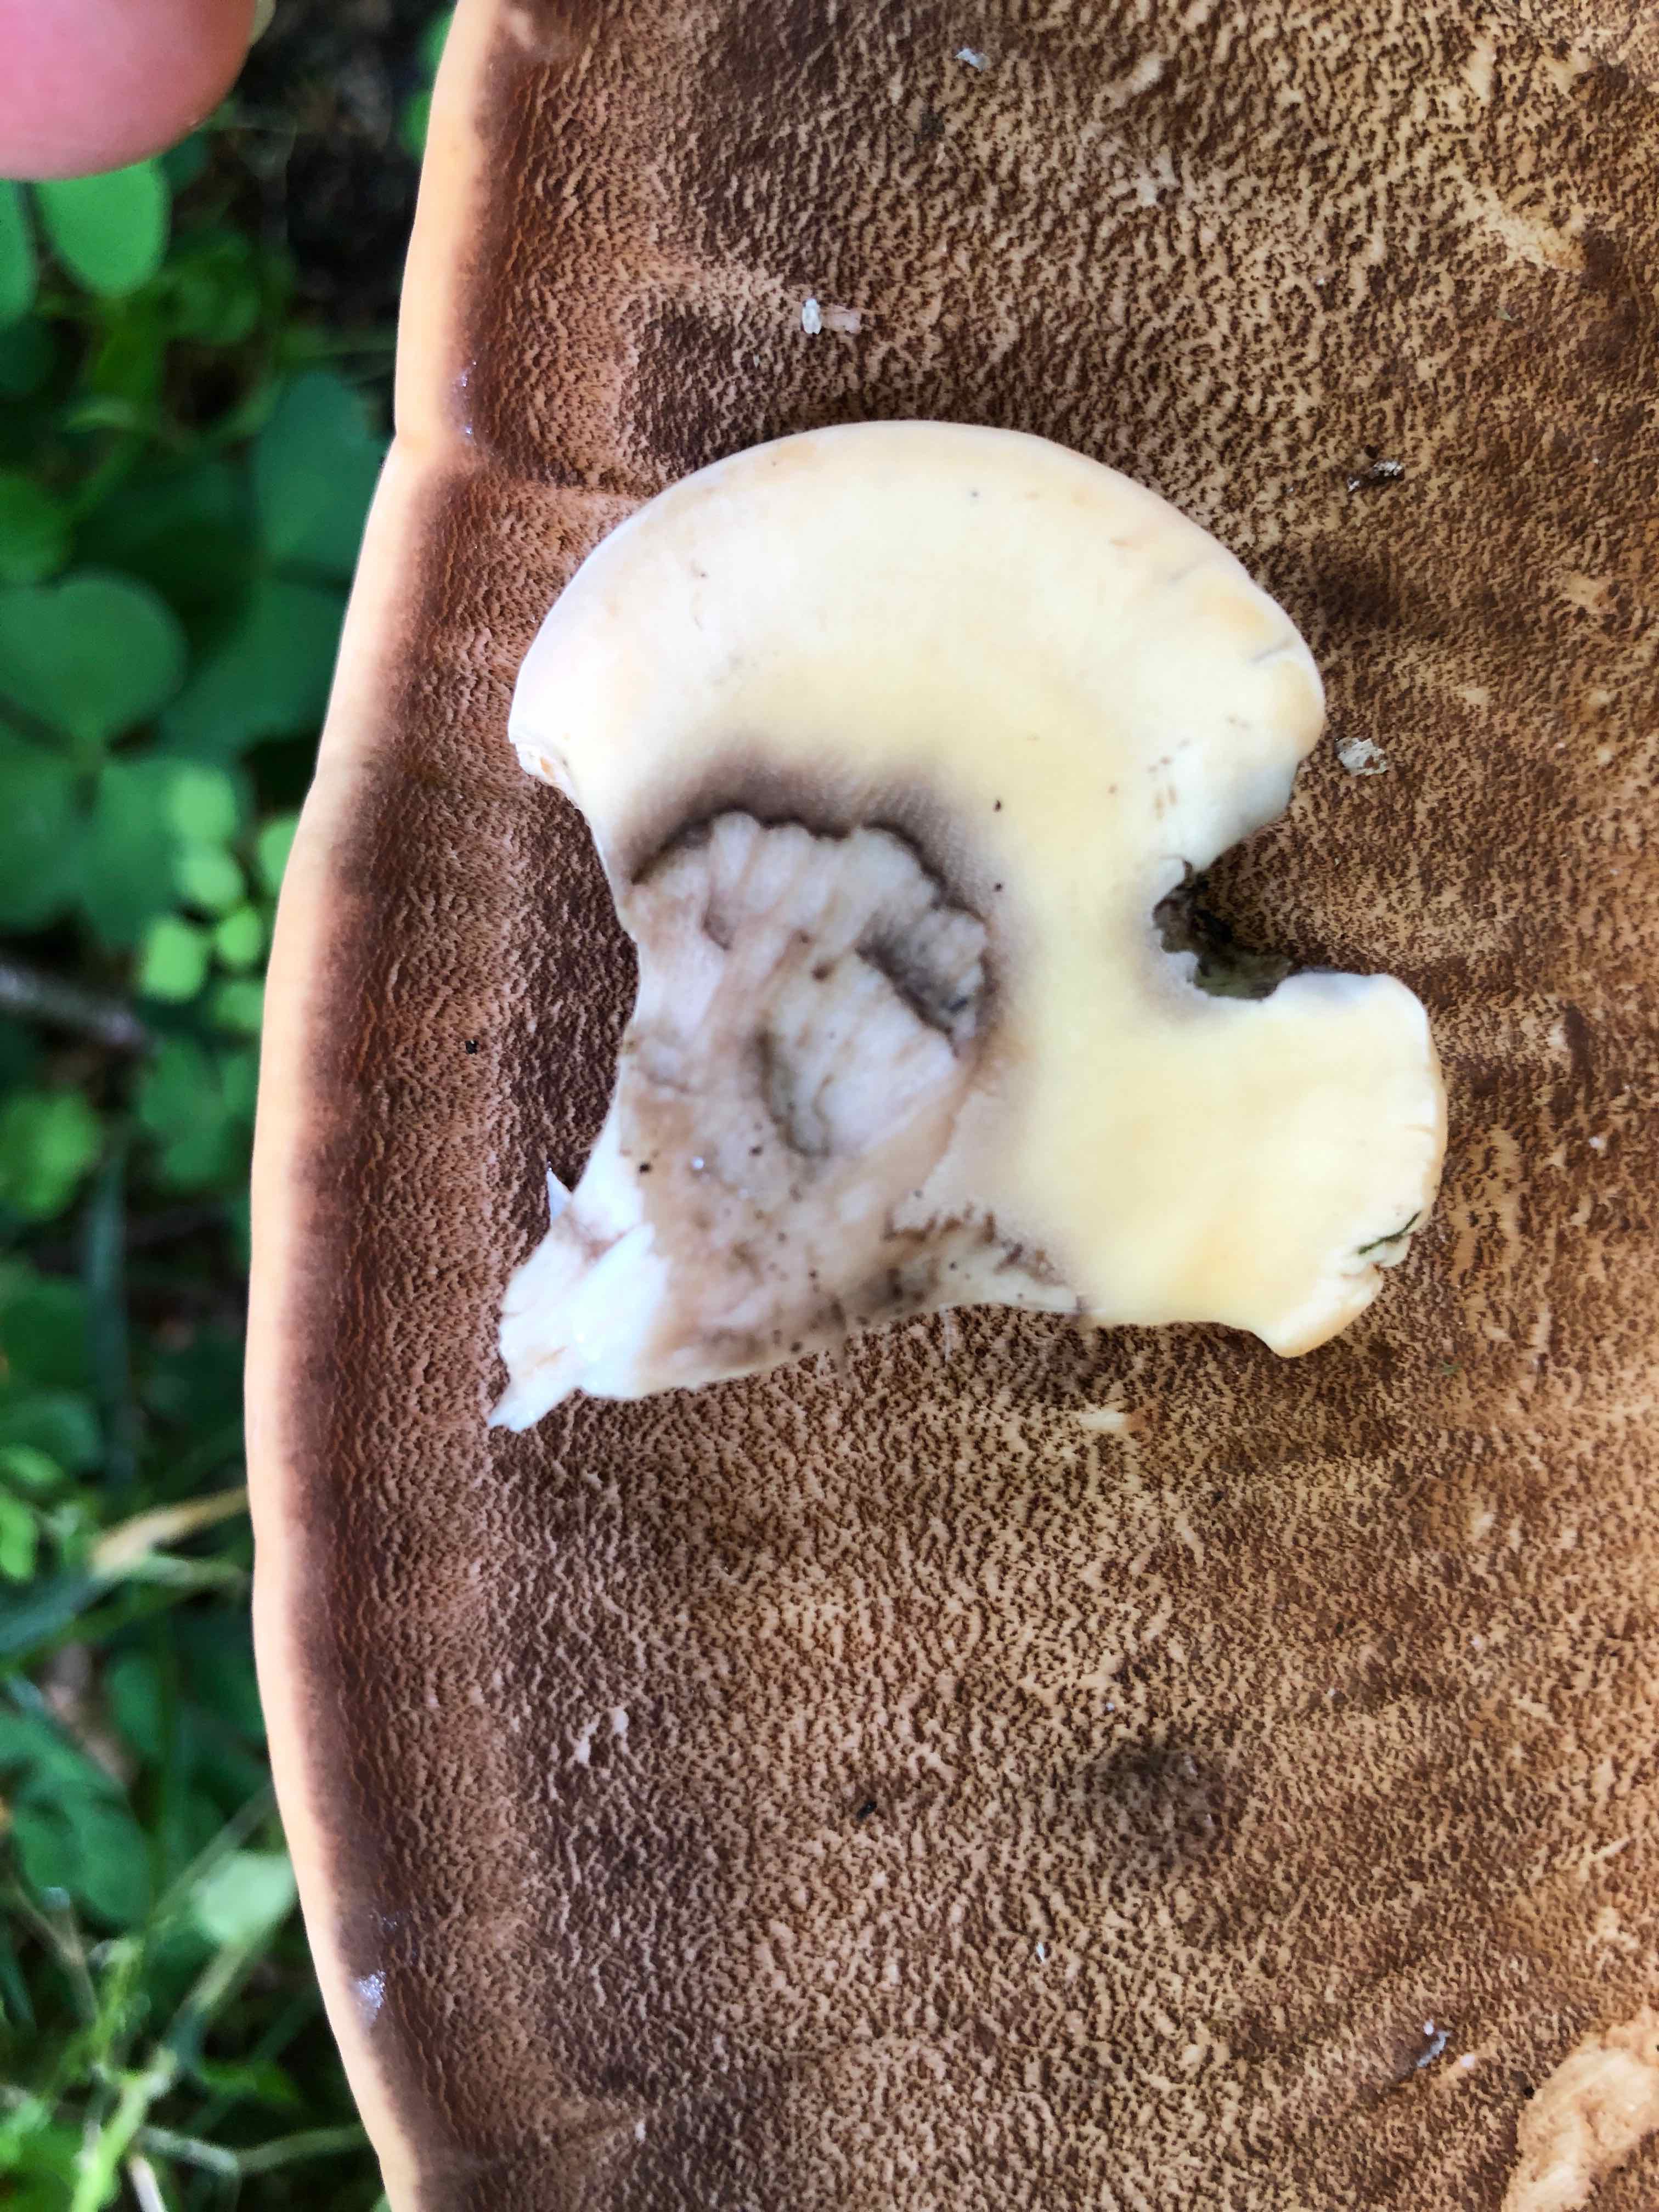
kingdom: Fungi
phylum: Basidiomycota
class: Agaricomycetes
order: Polyporales
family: Meripilaceae
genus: Meripilus
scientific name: Meripilus giganteus
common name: kæmpeporesvamp
